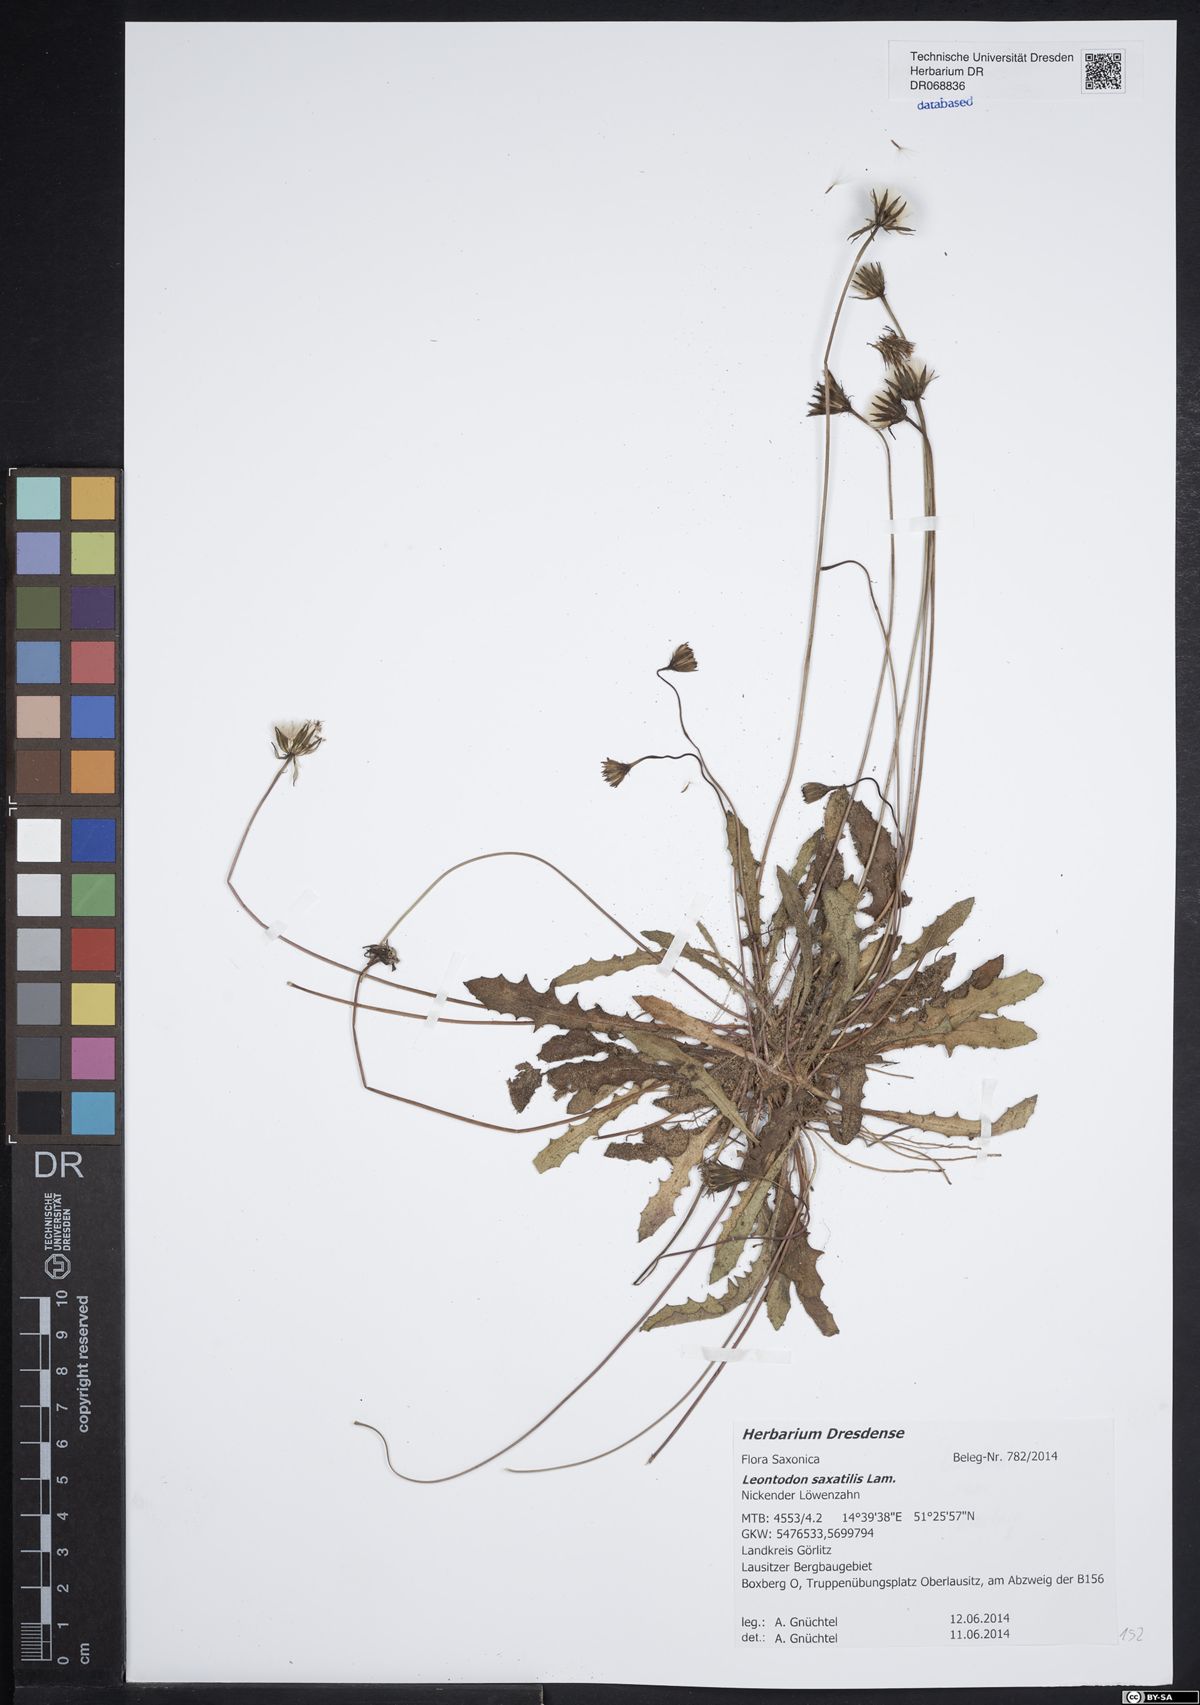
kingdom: Plantae
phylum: Tracheophyta
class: Magnoliopsida
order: Asterales
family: Asteraceae
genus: Thrincia
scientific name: Thrincia saxatilis
